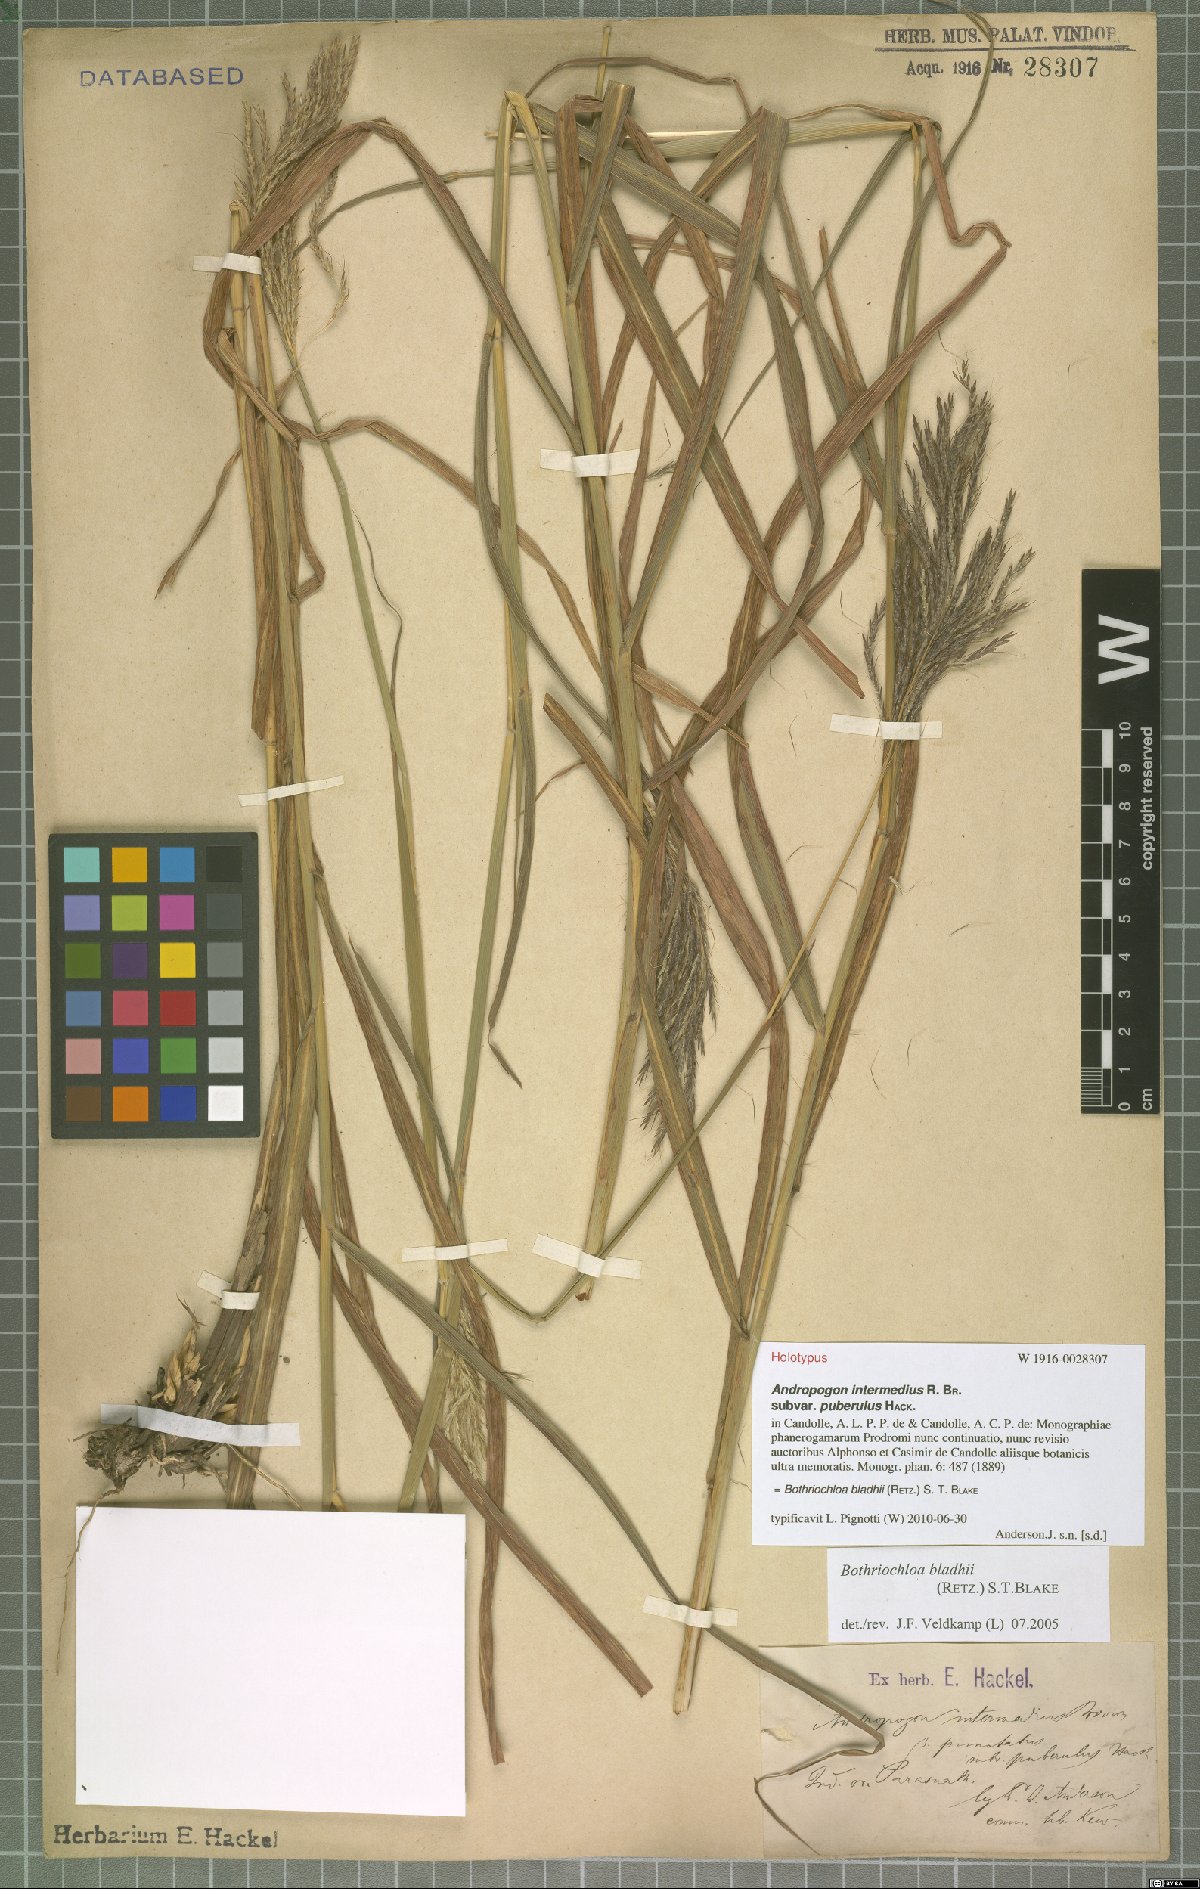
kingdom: Plantae
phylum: Tracheophyta
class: Liliopsida
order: Poales
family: Poaceae
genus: Bothriochloa
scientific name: Bothriochloa bladhii
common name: Caucasian bluestem
